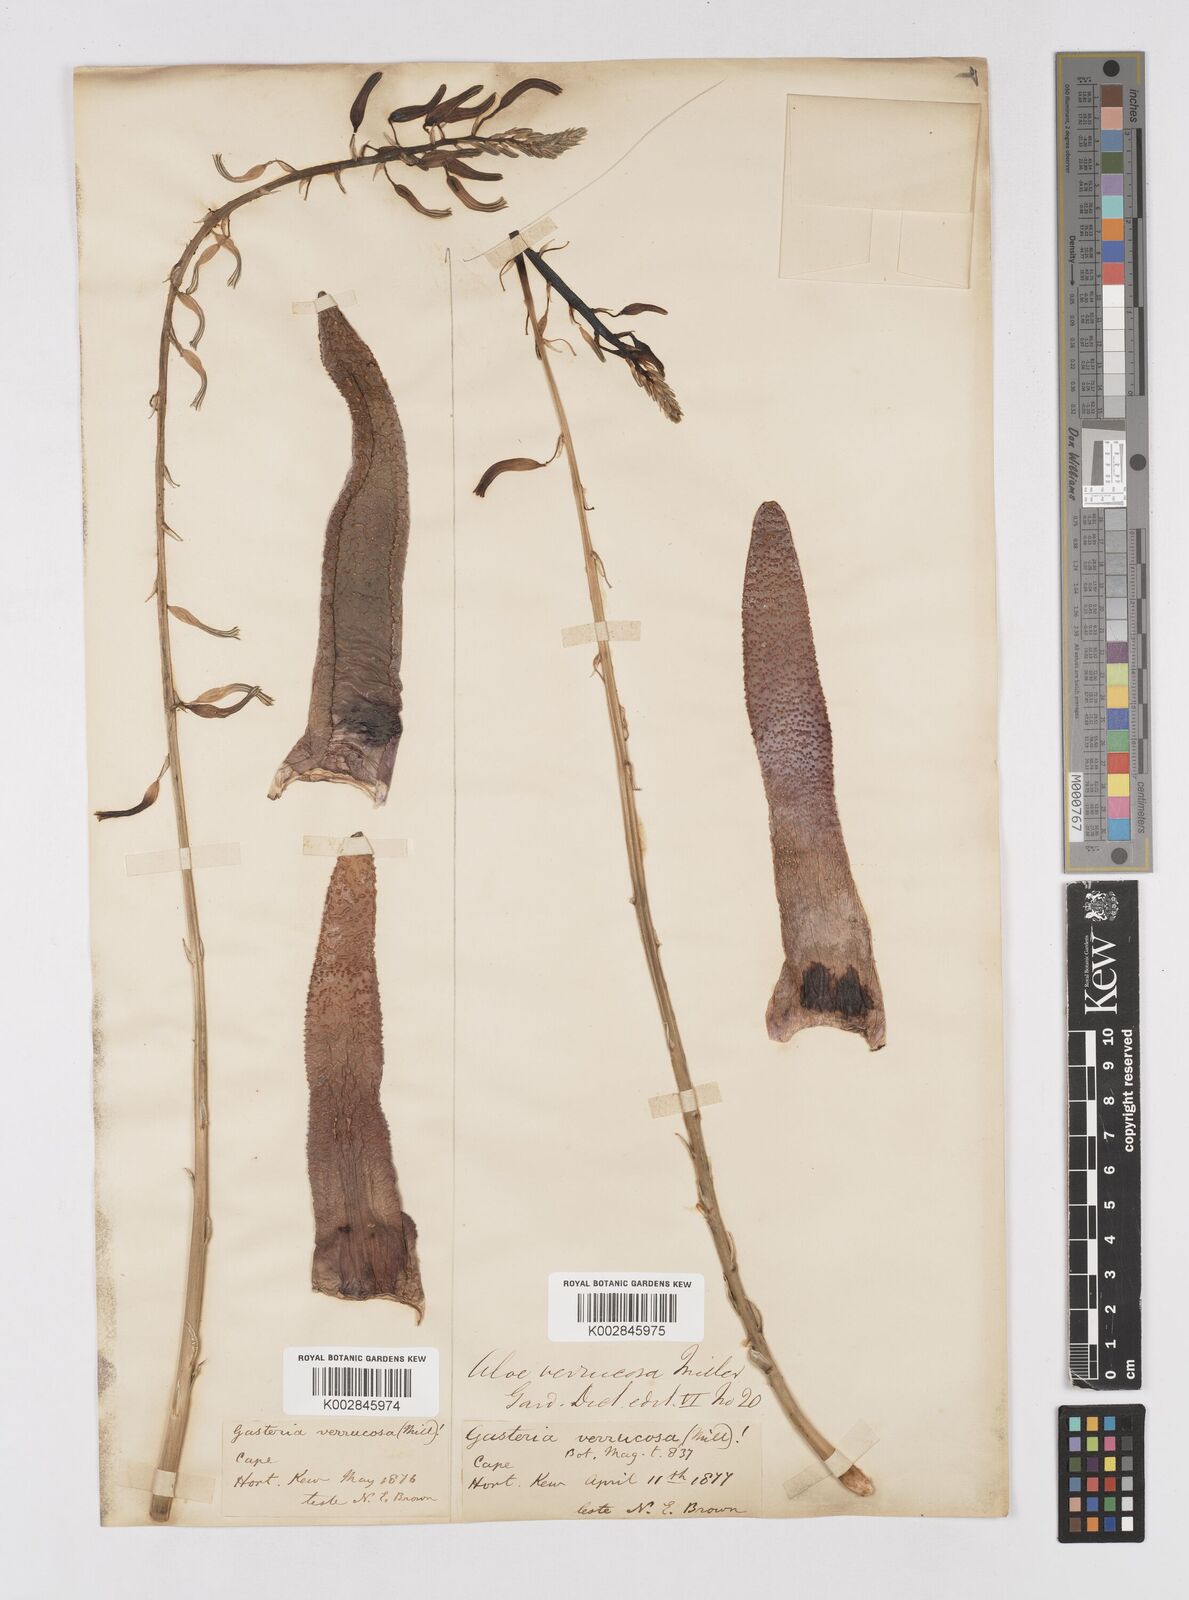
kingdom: Plantae
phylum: Tracheophyta
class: Liliopsida
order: Asparagales
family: Asphodelaceae
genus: Gasteria
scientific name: Gasteria carinata
